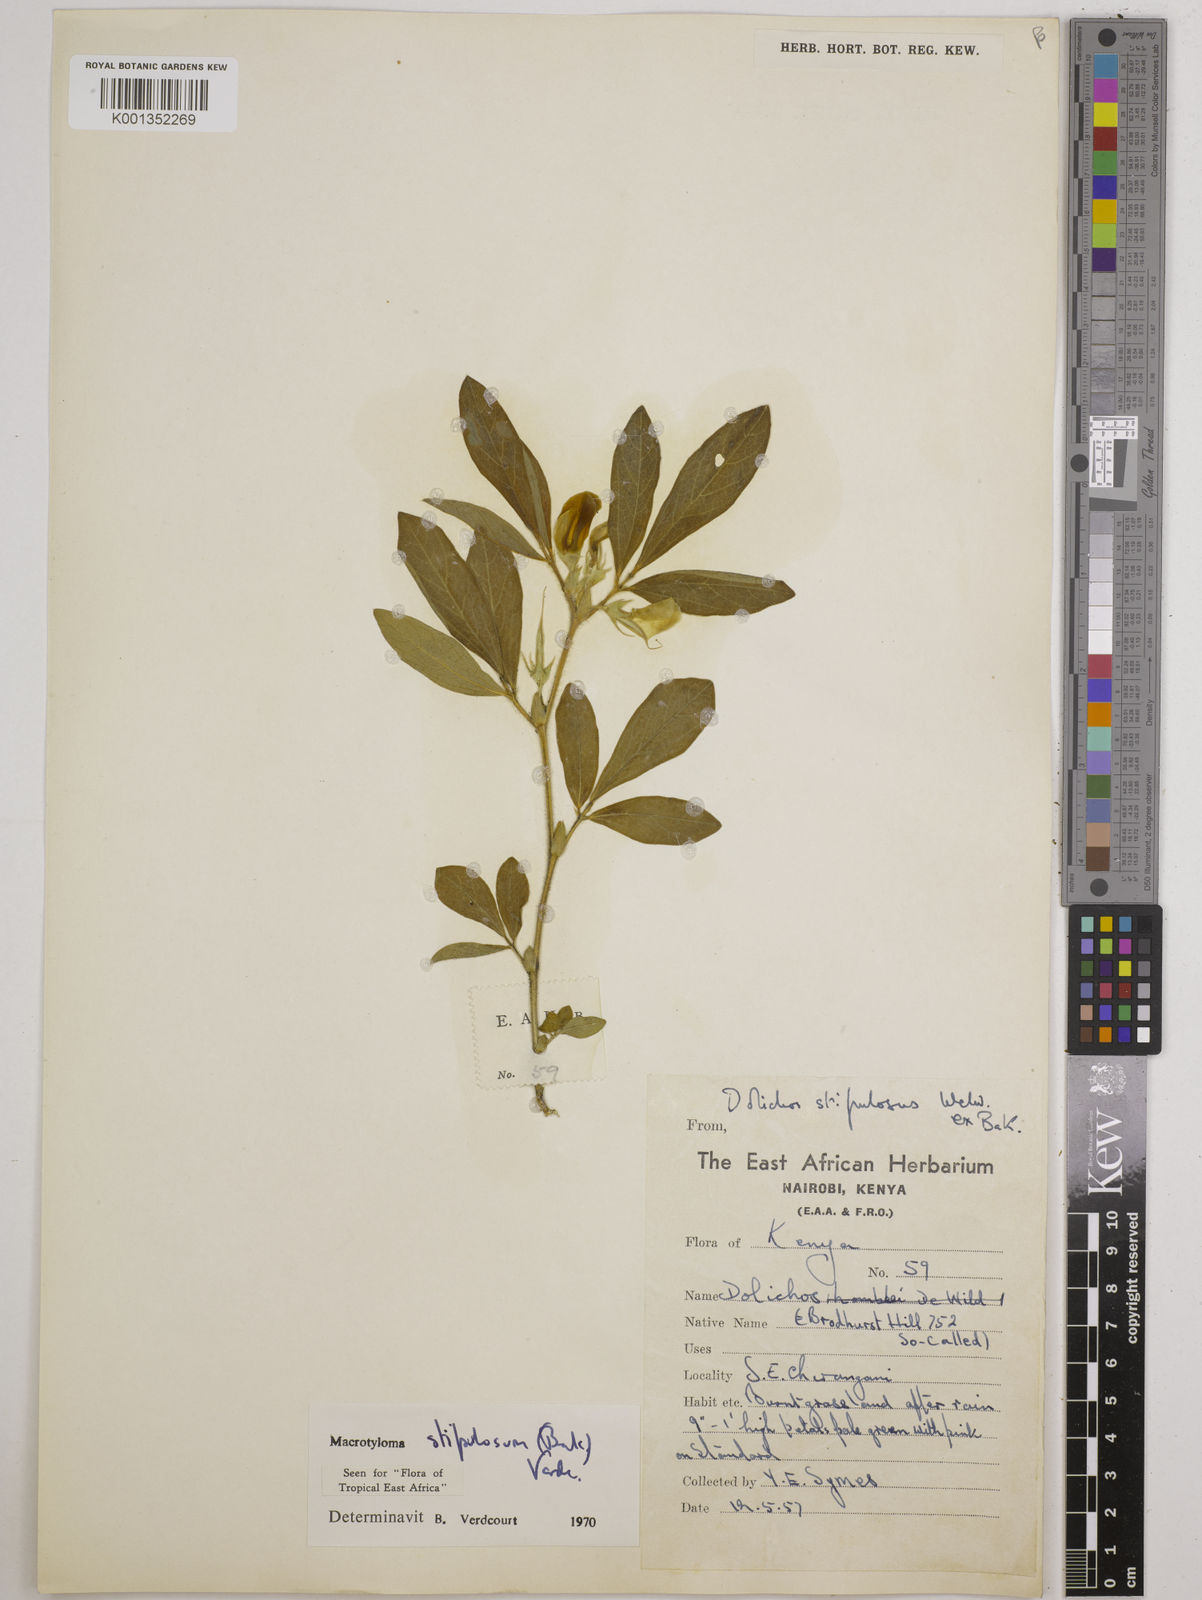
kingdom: Plantae
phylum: Tracheophyta
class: Magnoliopsida
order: Fabales
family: Fabaceae
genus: Macrotyloma
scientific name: Macrotyloma stipulosum
